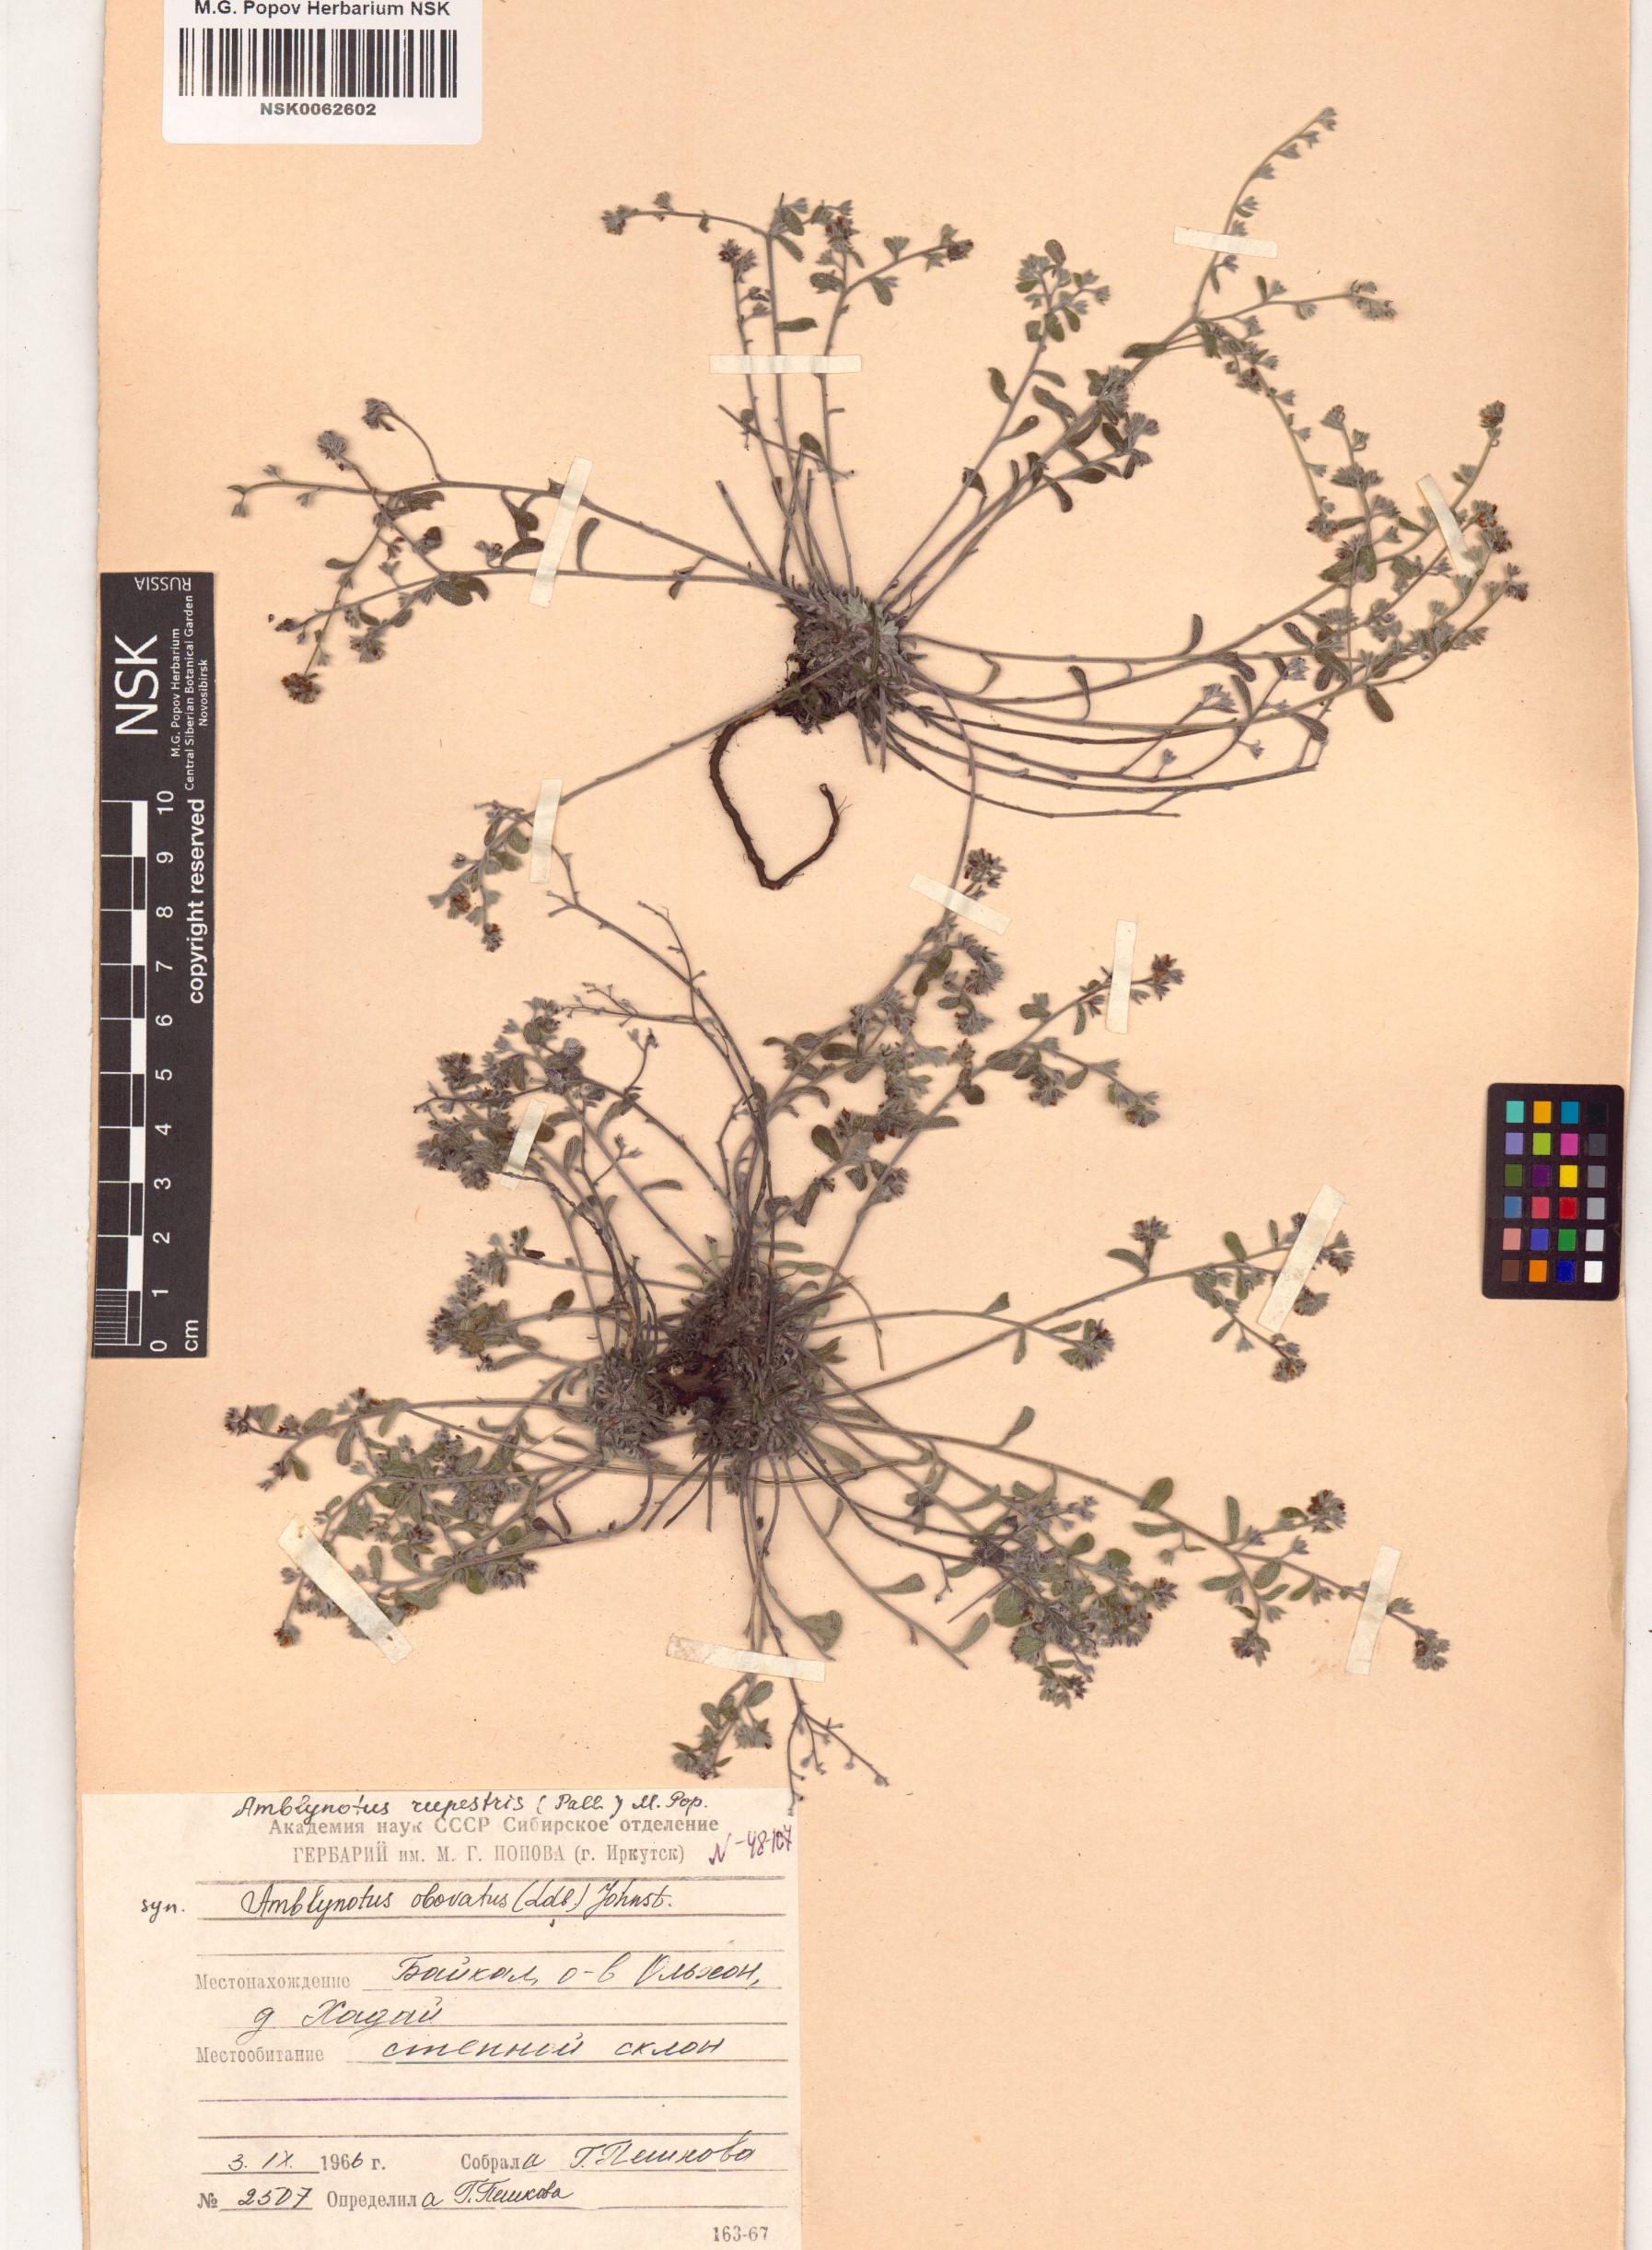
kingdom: Plantae
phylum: Tracheophyta
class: Magnoliopsida
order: Boraginales
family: Boraginaceae
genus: Eritrichium
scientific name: Eritrichium rupestre
